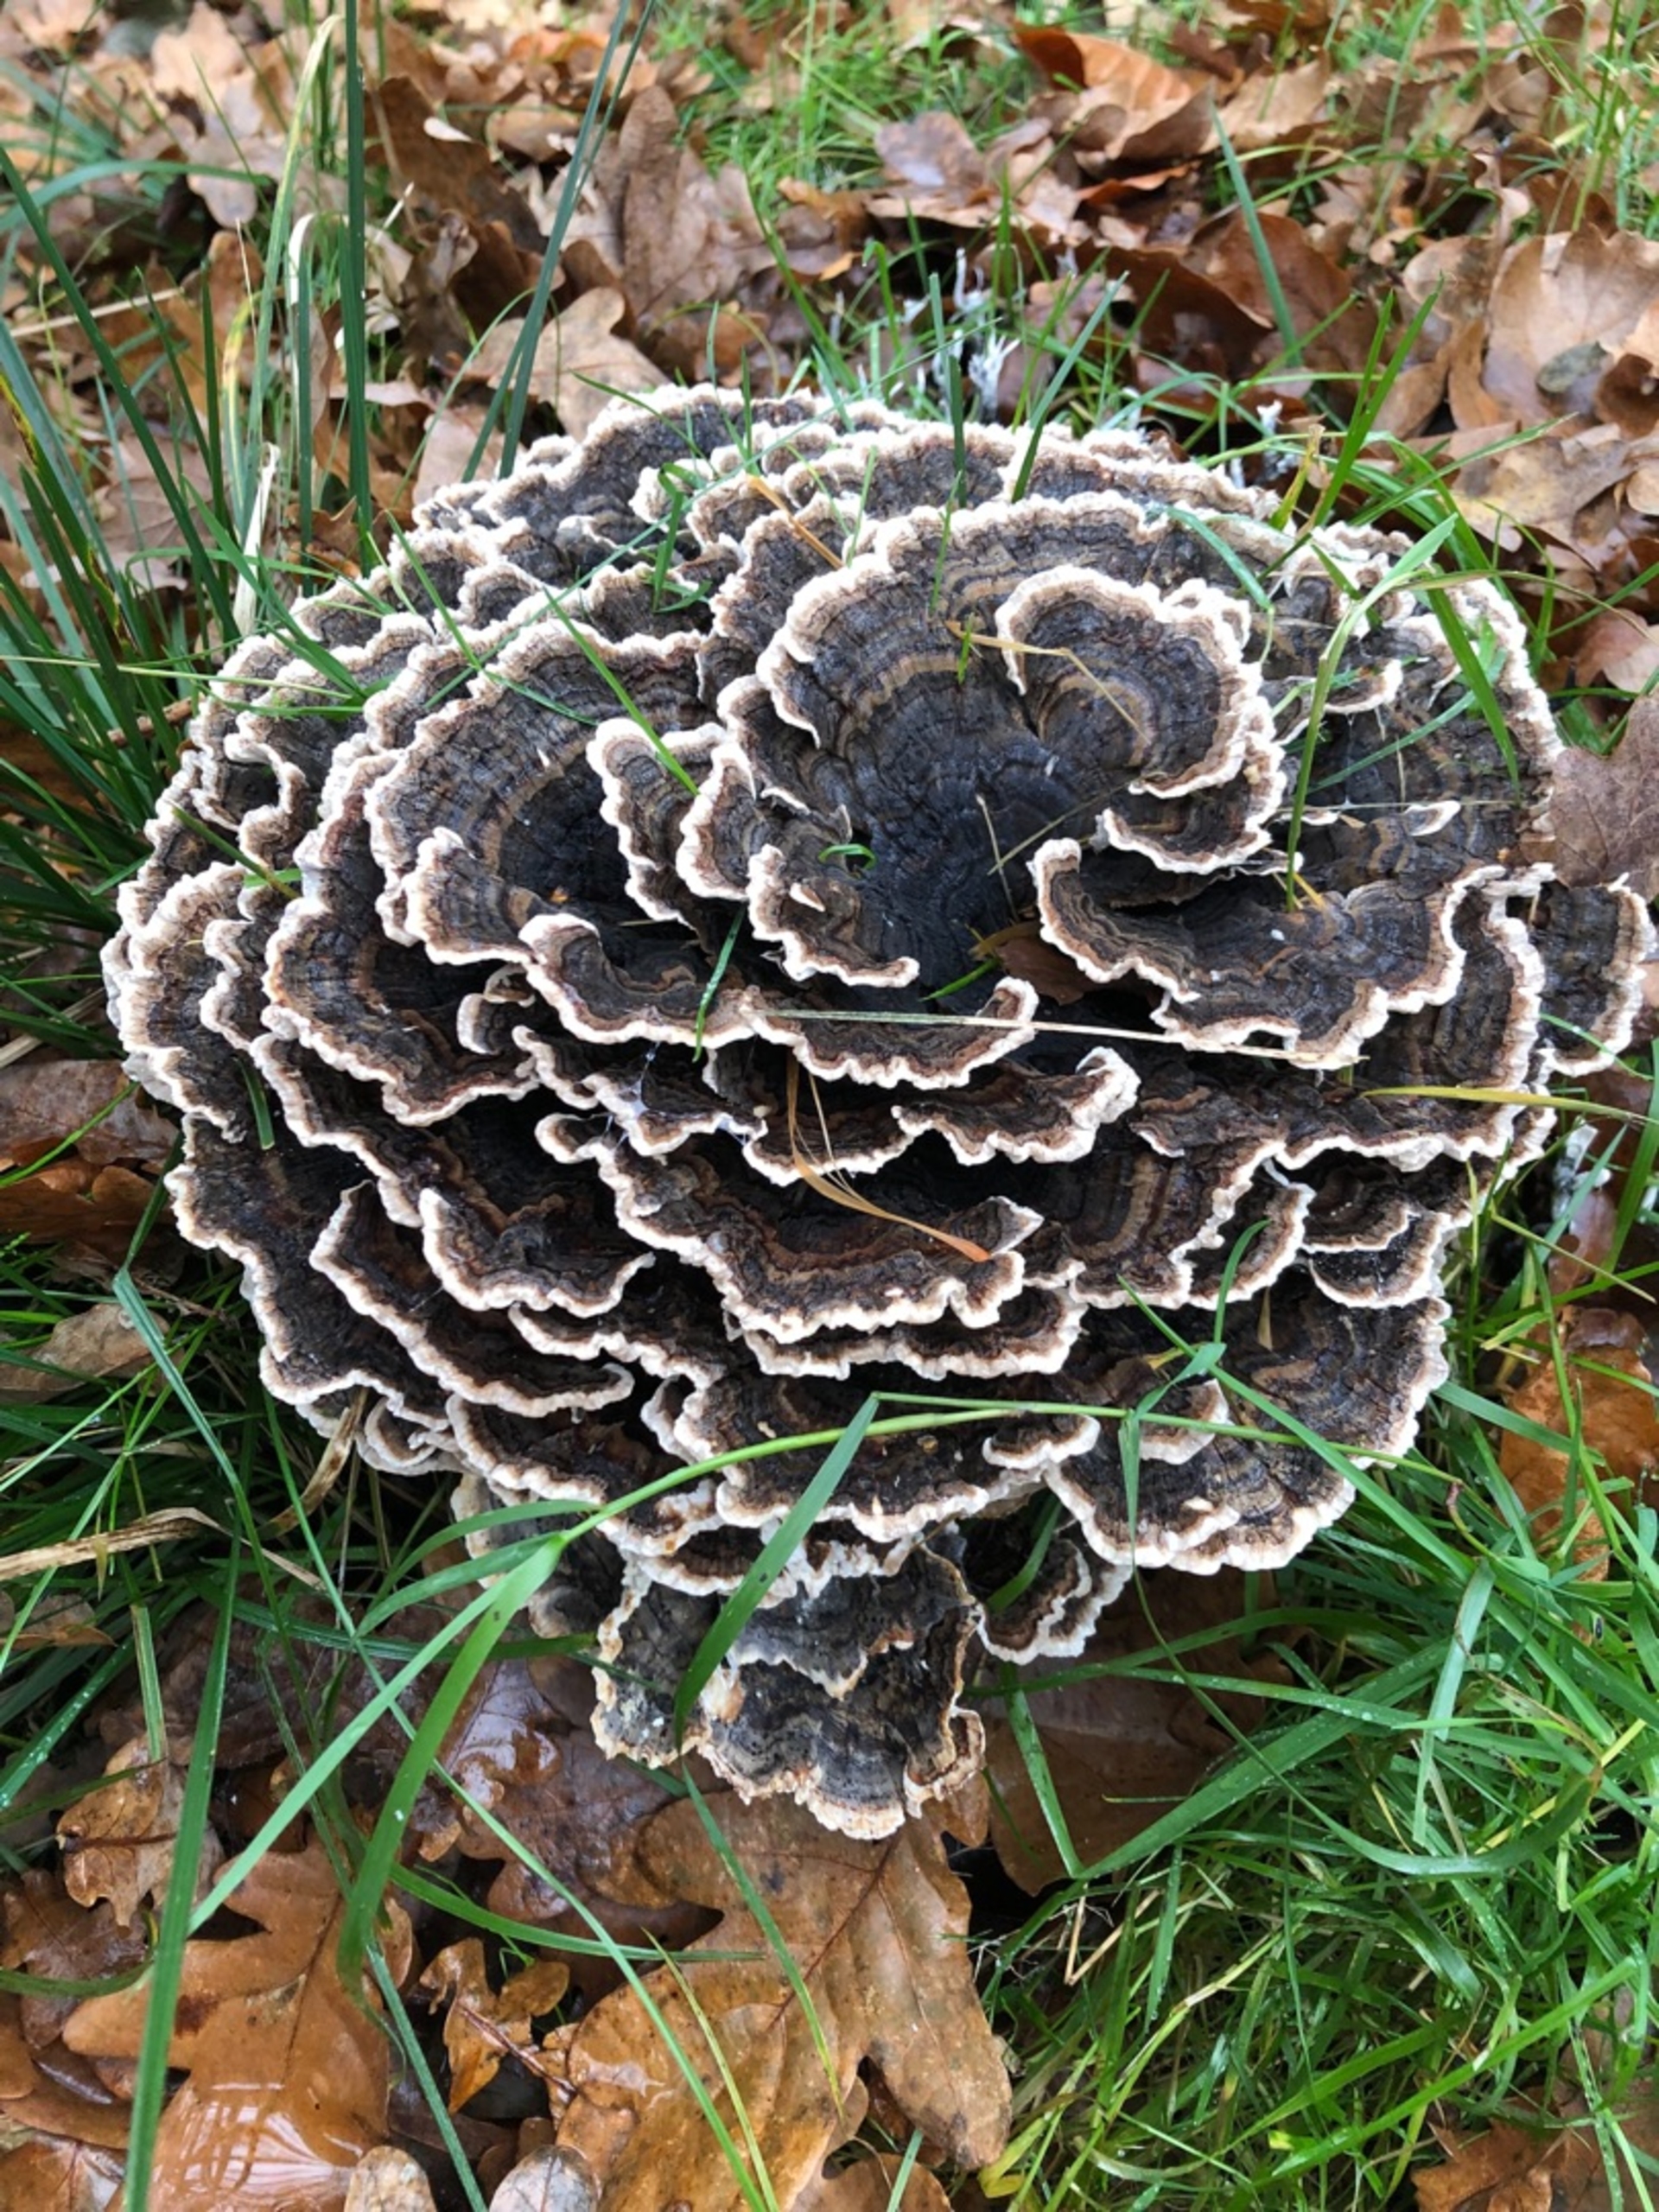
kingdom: Fungi
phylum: Basidiomycota
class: Agaricomycetes
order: Polyporales
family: Polyporaceae
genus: Trametes
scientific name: Trametes versicolor
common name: Broget læderporesvamp
